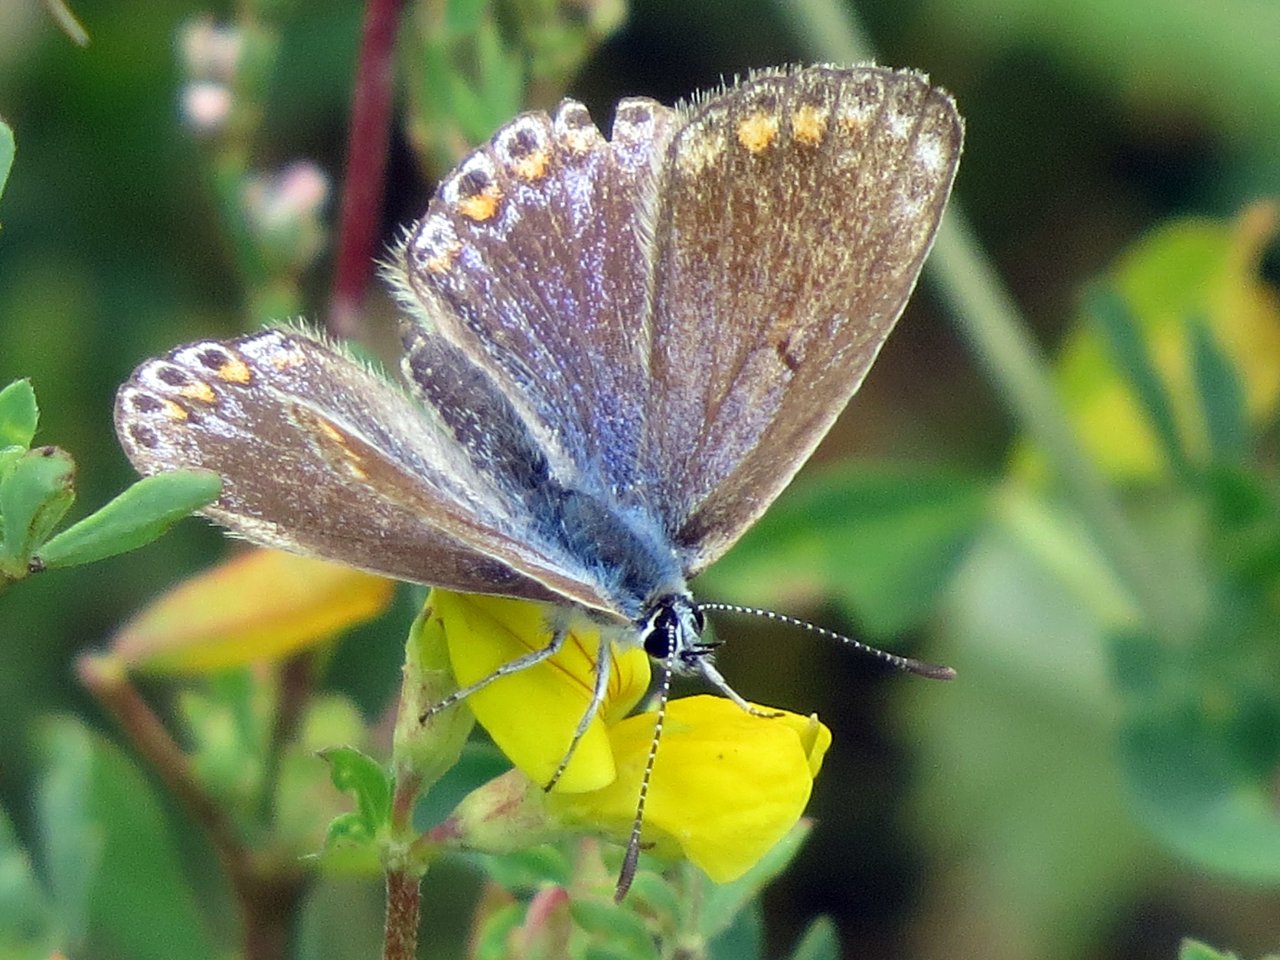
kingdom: Animalia
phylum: Arthropoda
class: Insecta
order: Lepidoptera
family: Lycaenidae
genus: Polyommatus
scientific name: Polyommatus icarus
